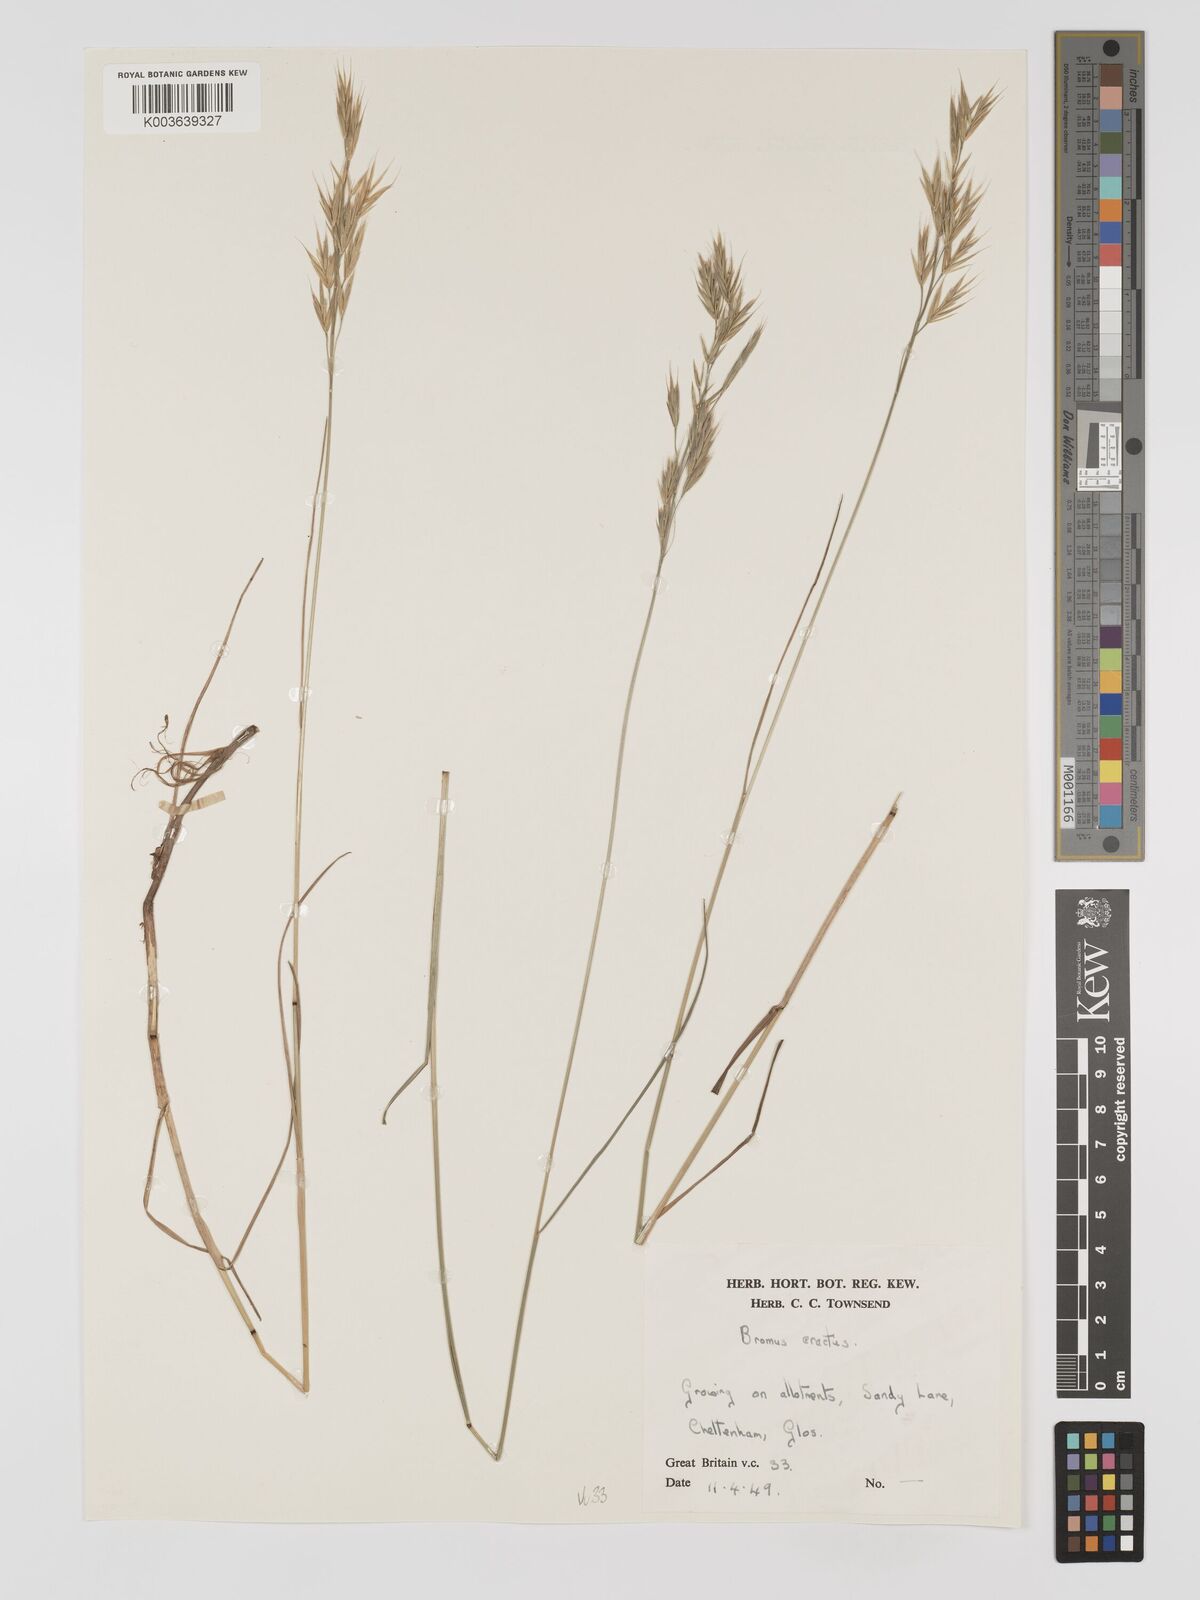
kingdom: Plantae
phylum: Tracheophyta
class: Liliopsida
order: Poales
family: Poaceae
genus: Bromus
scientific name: Bromus erectus
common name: Erect brome
